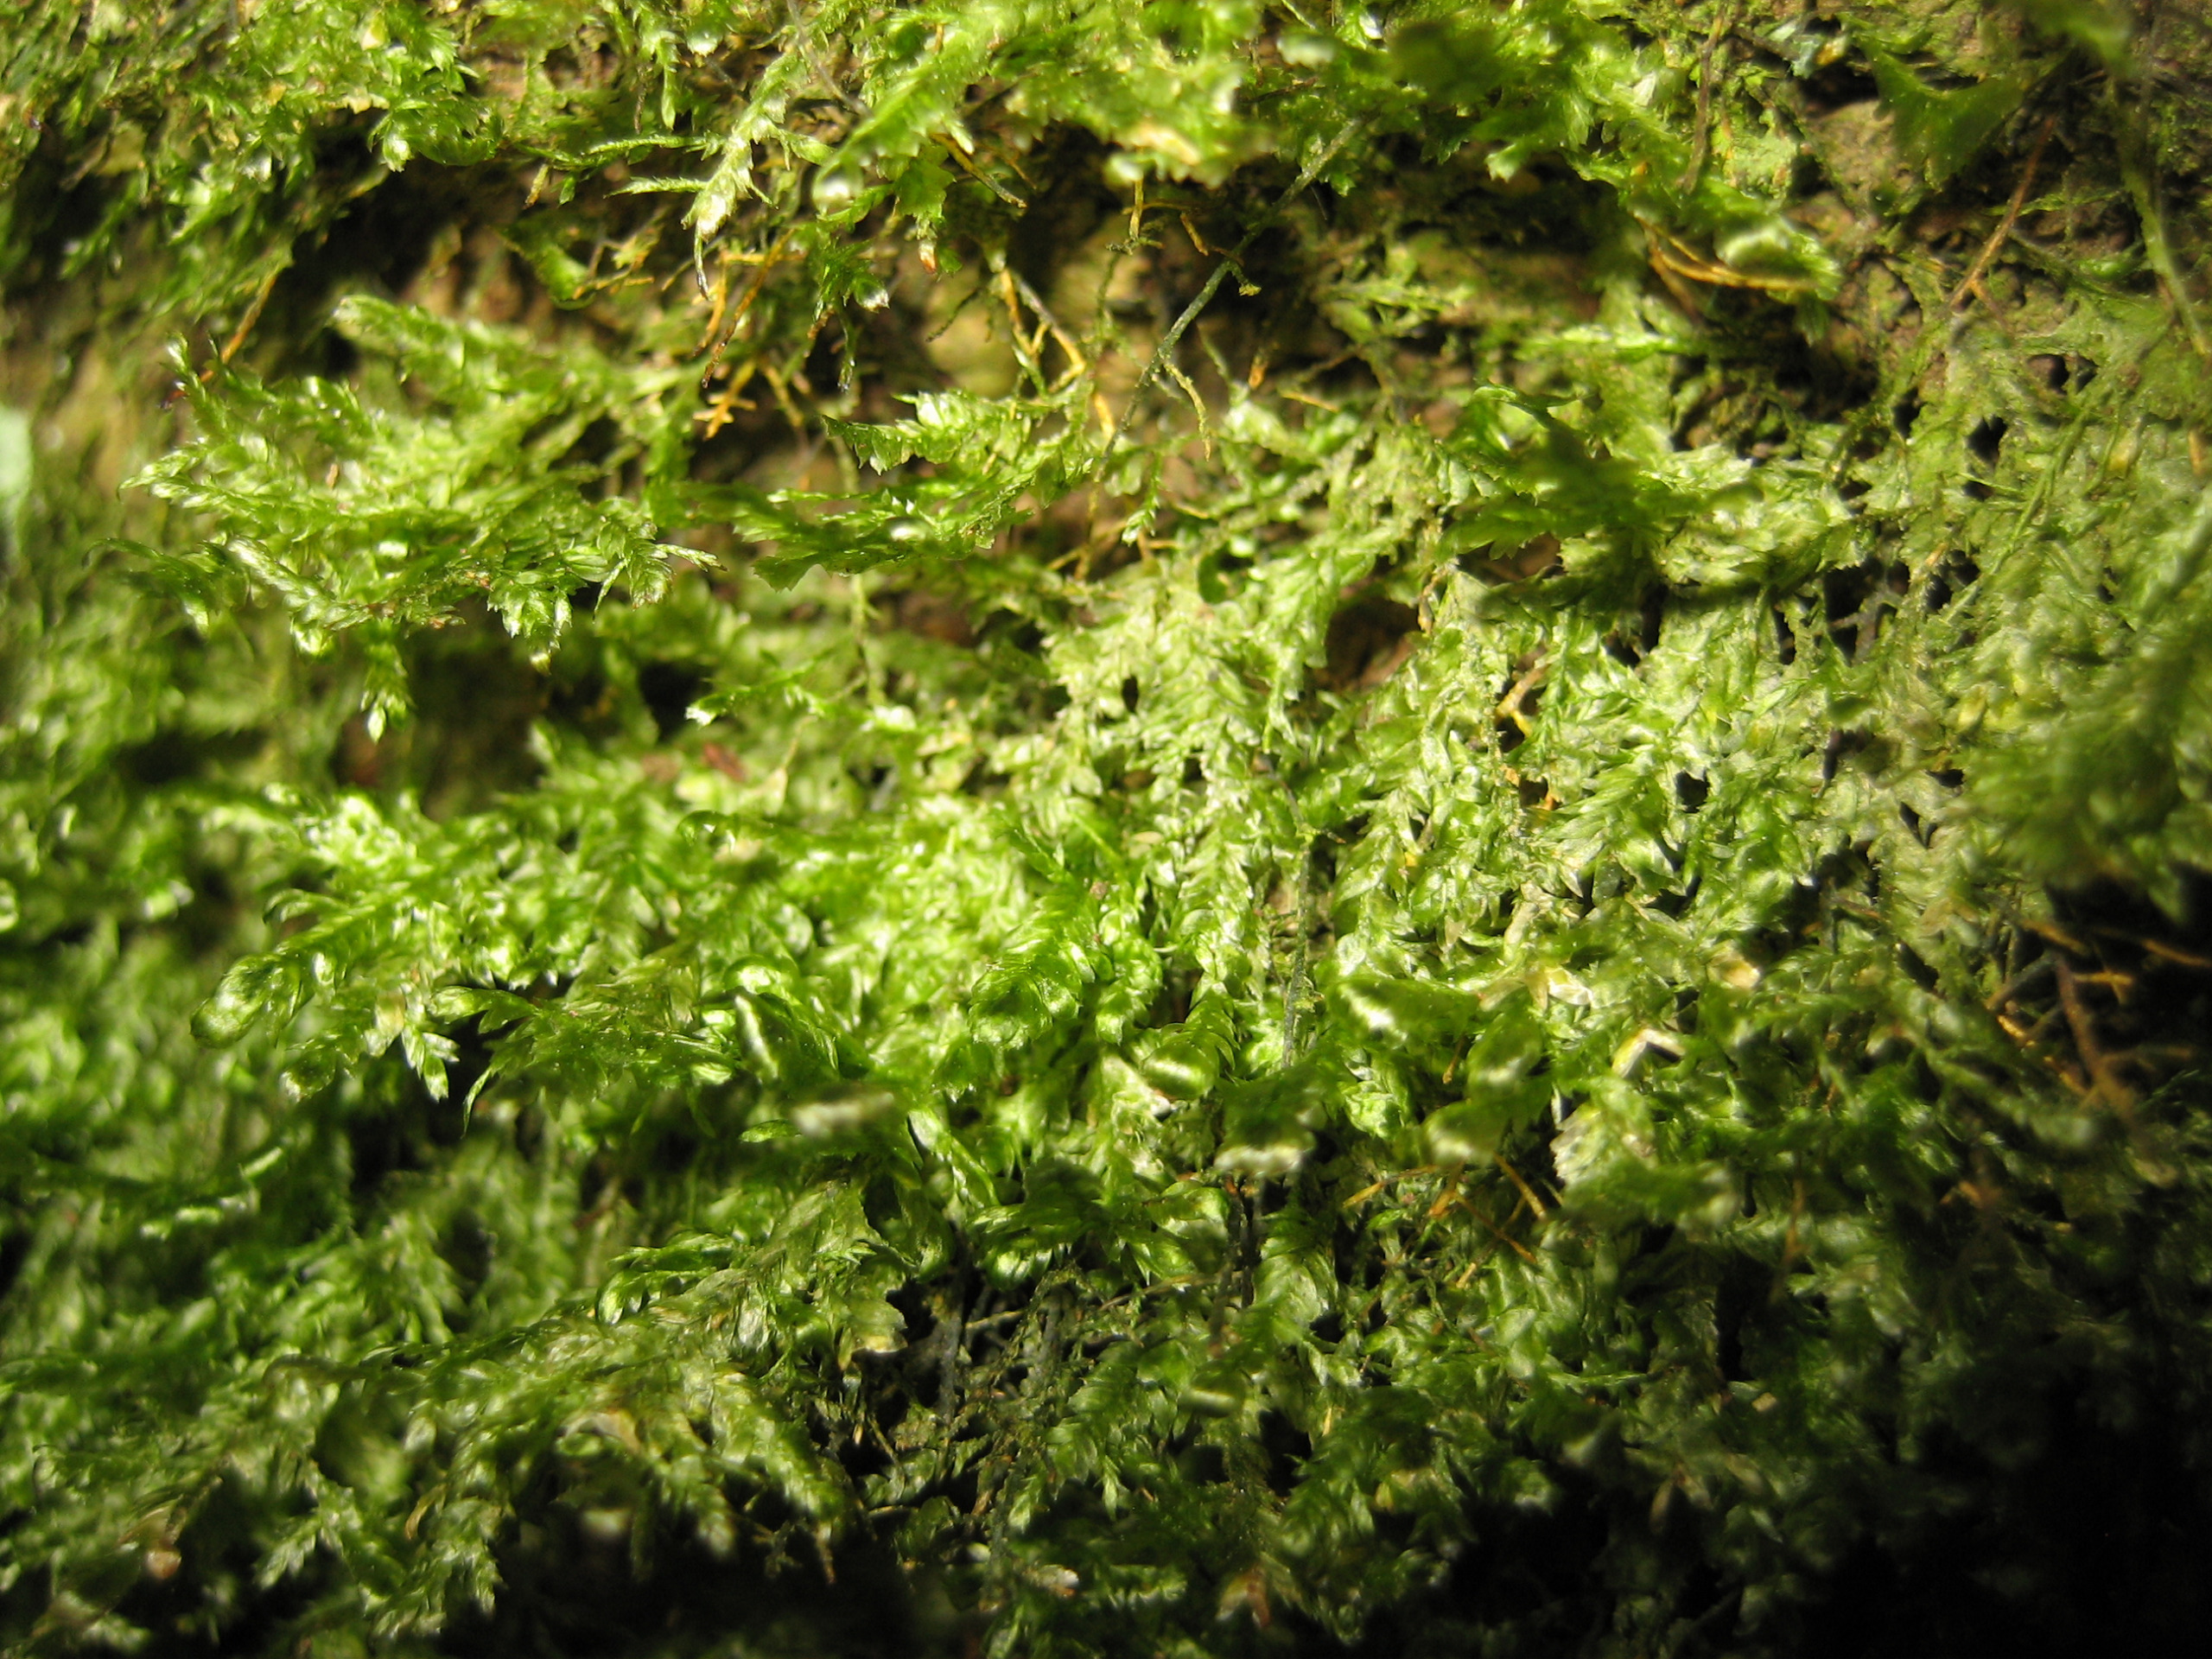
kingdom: Plantae
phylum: Bryophyta
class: Bryopsida
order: Hypnales
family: Neckeraceae
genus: Alleniella
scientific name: Alleniella complanata
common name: Almindelig fladmos
